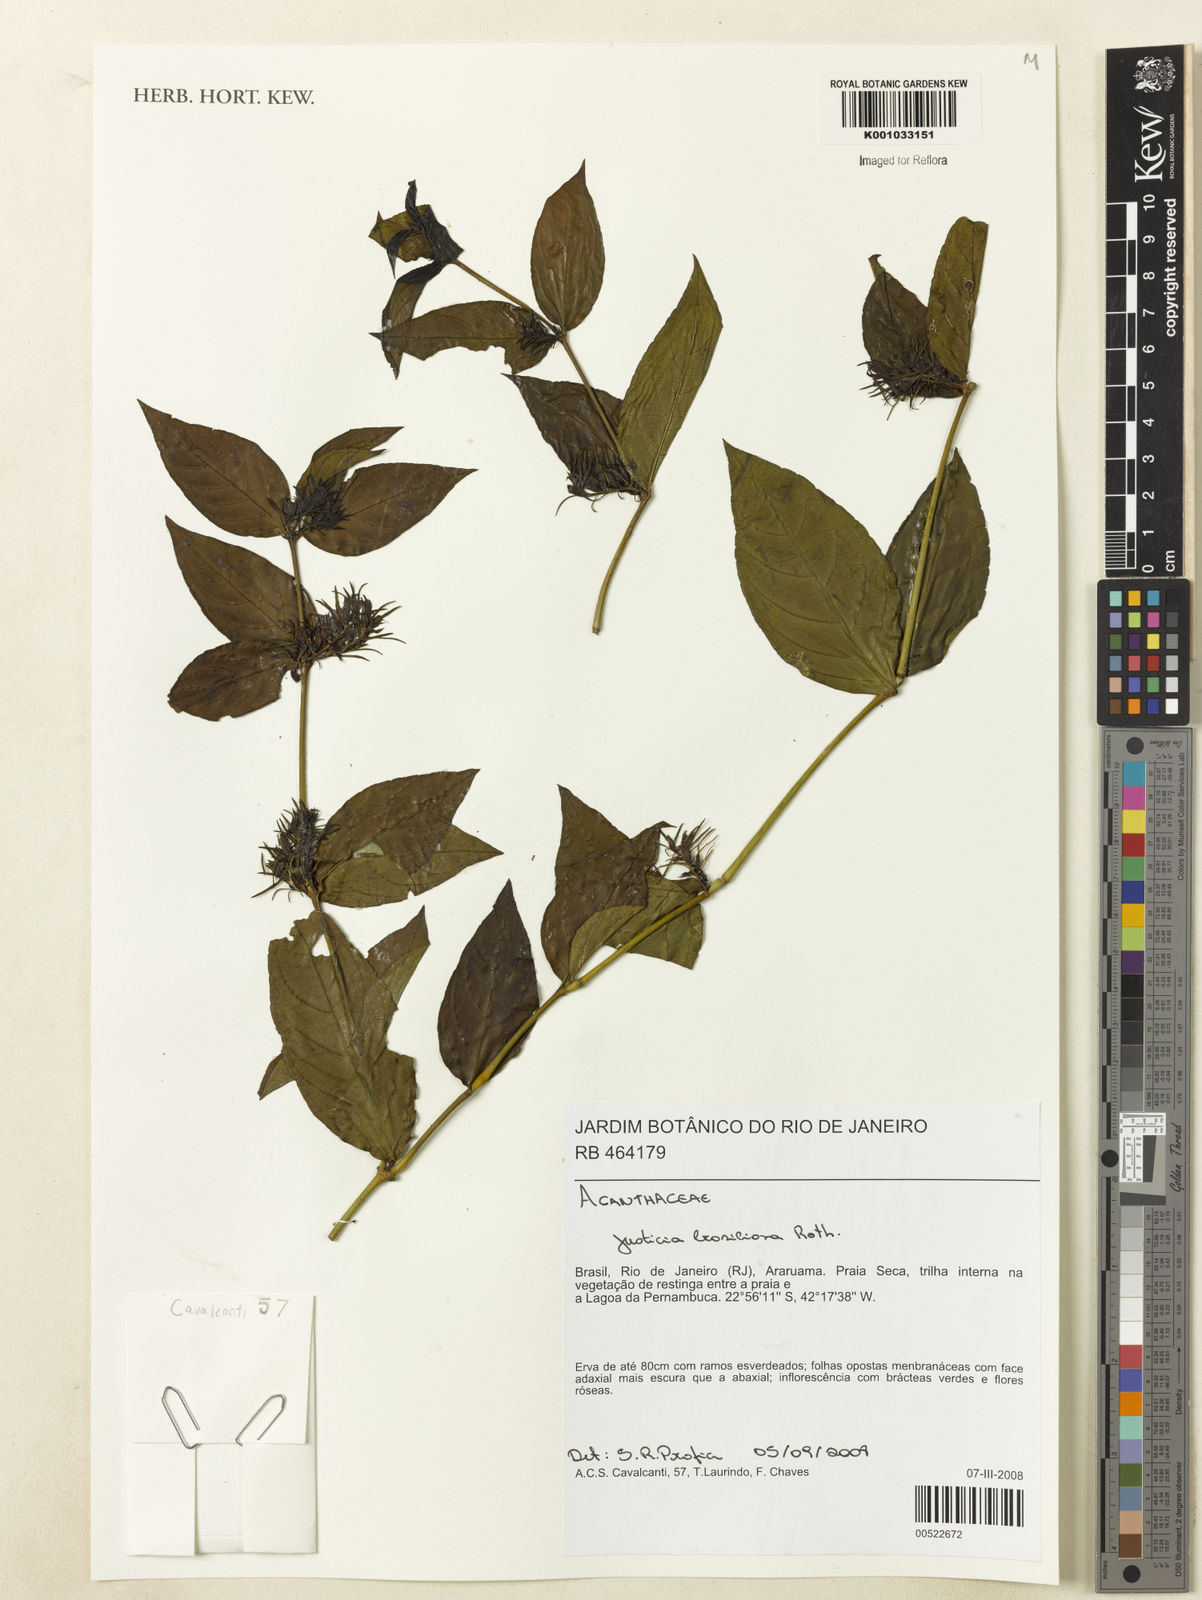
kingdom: Plantae
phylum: Tracheophyta
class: Magnoliopsida
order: Lamiales
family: Acanthaceae
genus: Justicia
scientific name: Justicia brasiliana
